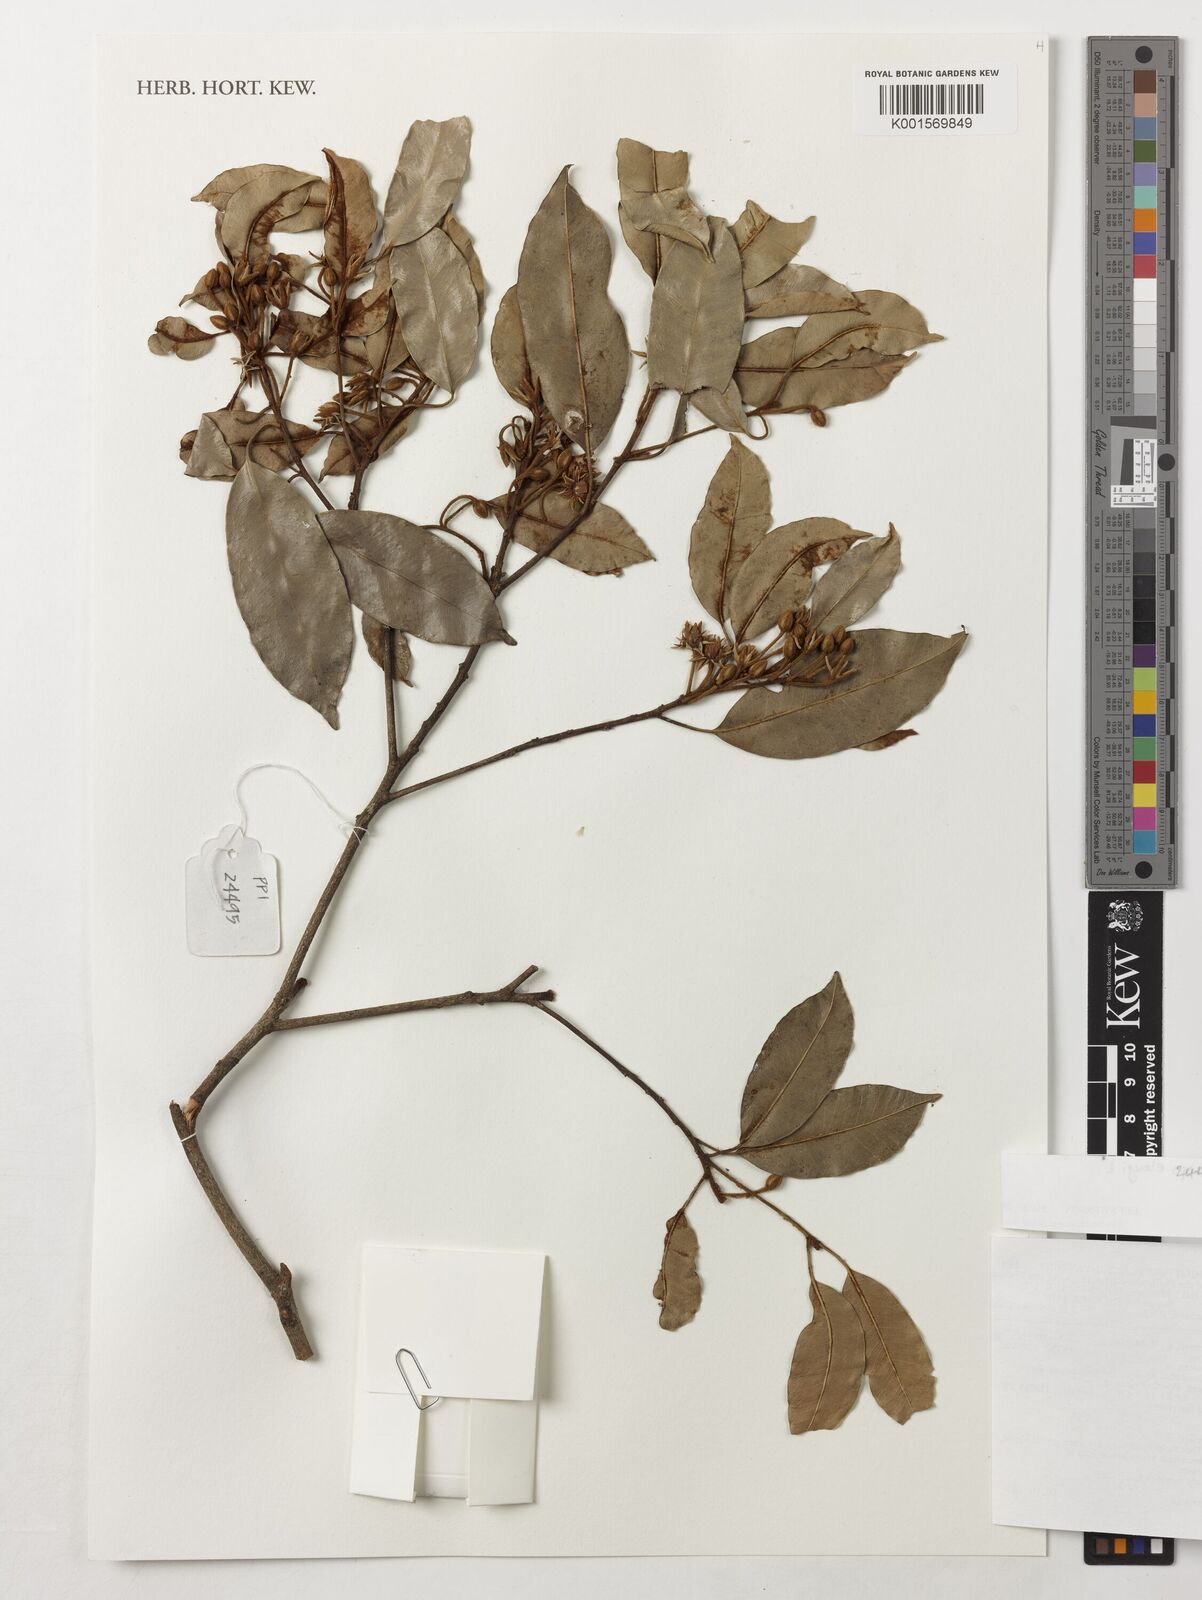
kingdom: Plantae
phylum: Tracheophyta
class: Magnoliopsida
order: Ericales
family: Sapotaceae
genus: Mimusops
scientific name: Mimusops elengi
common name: Spanish cherry
